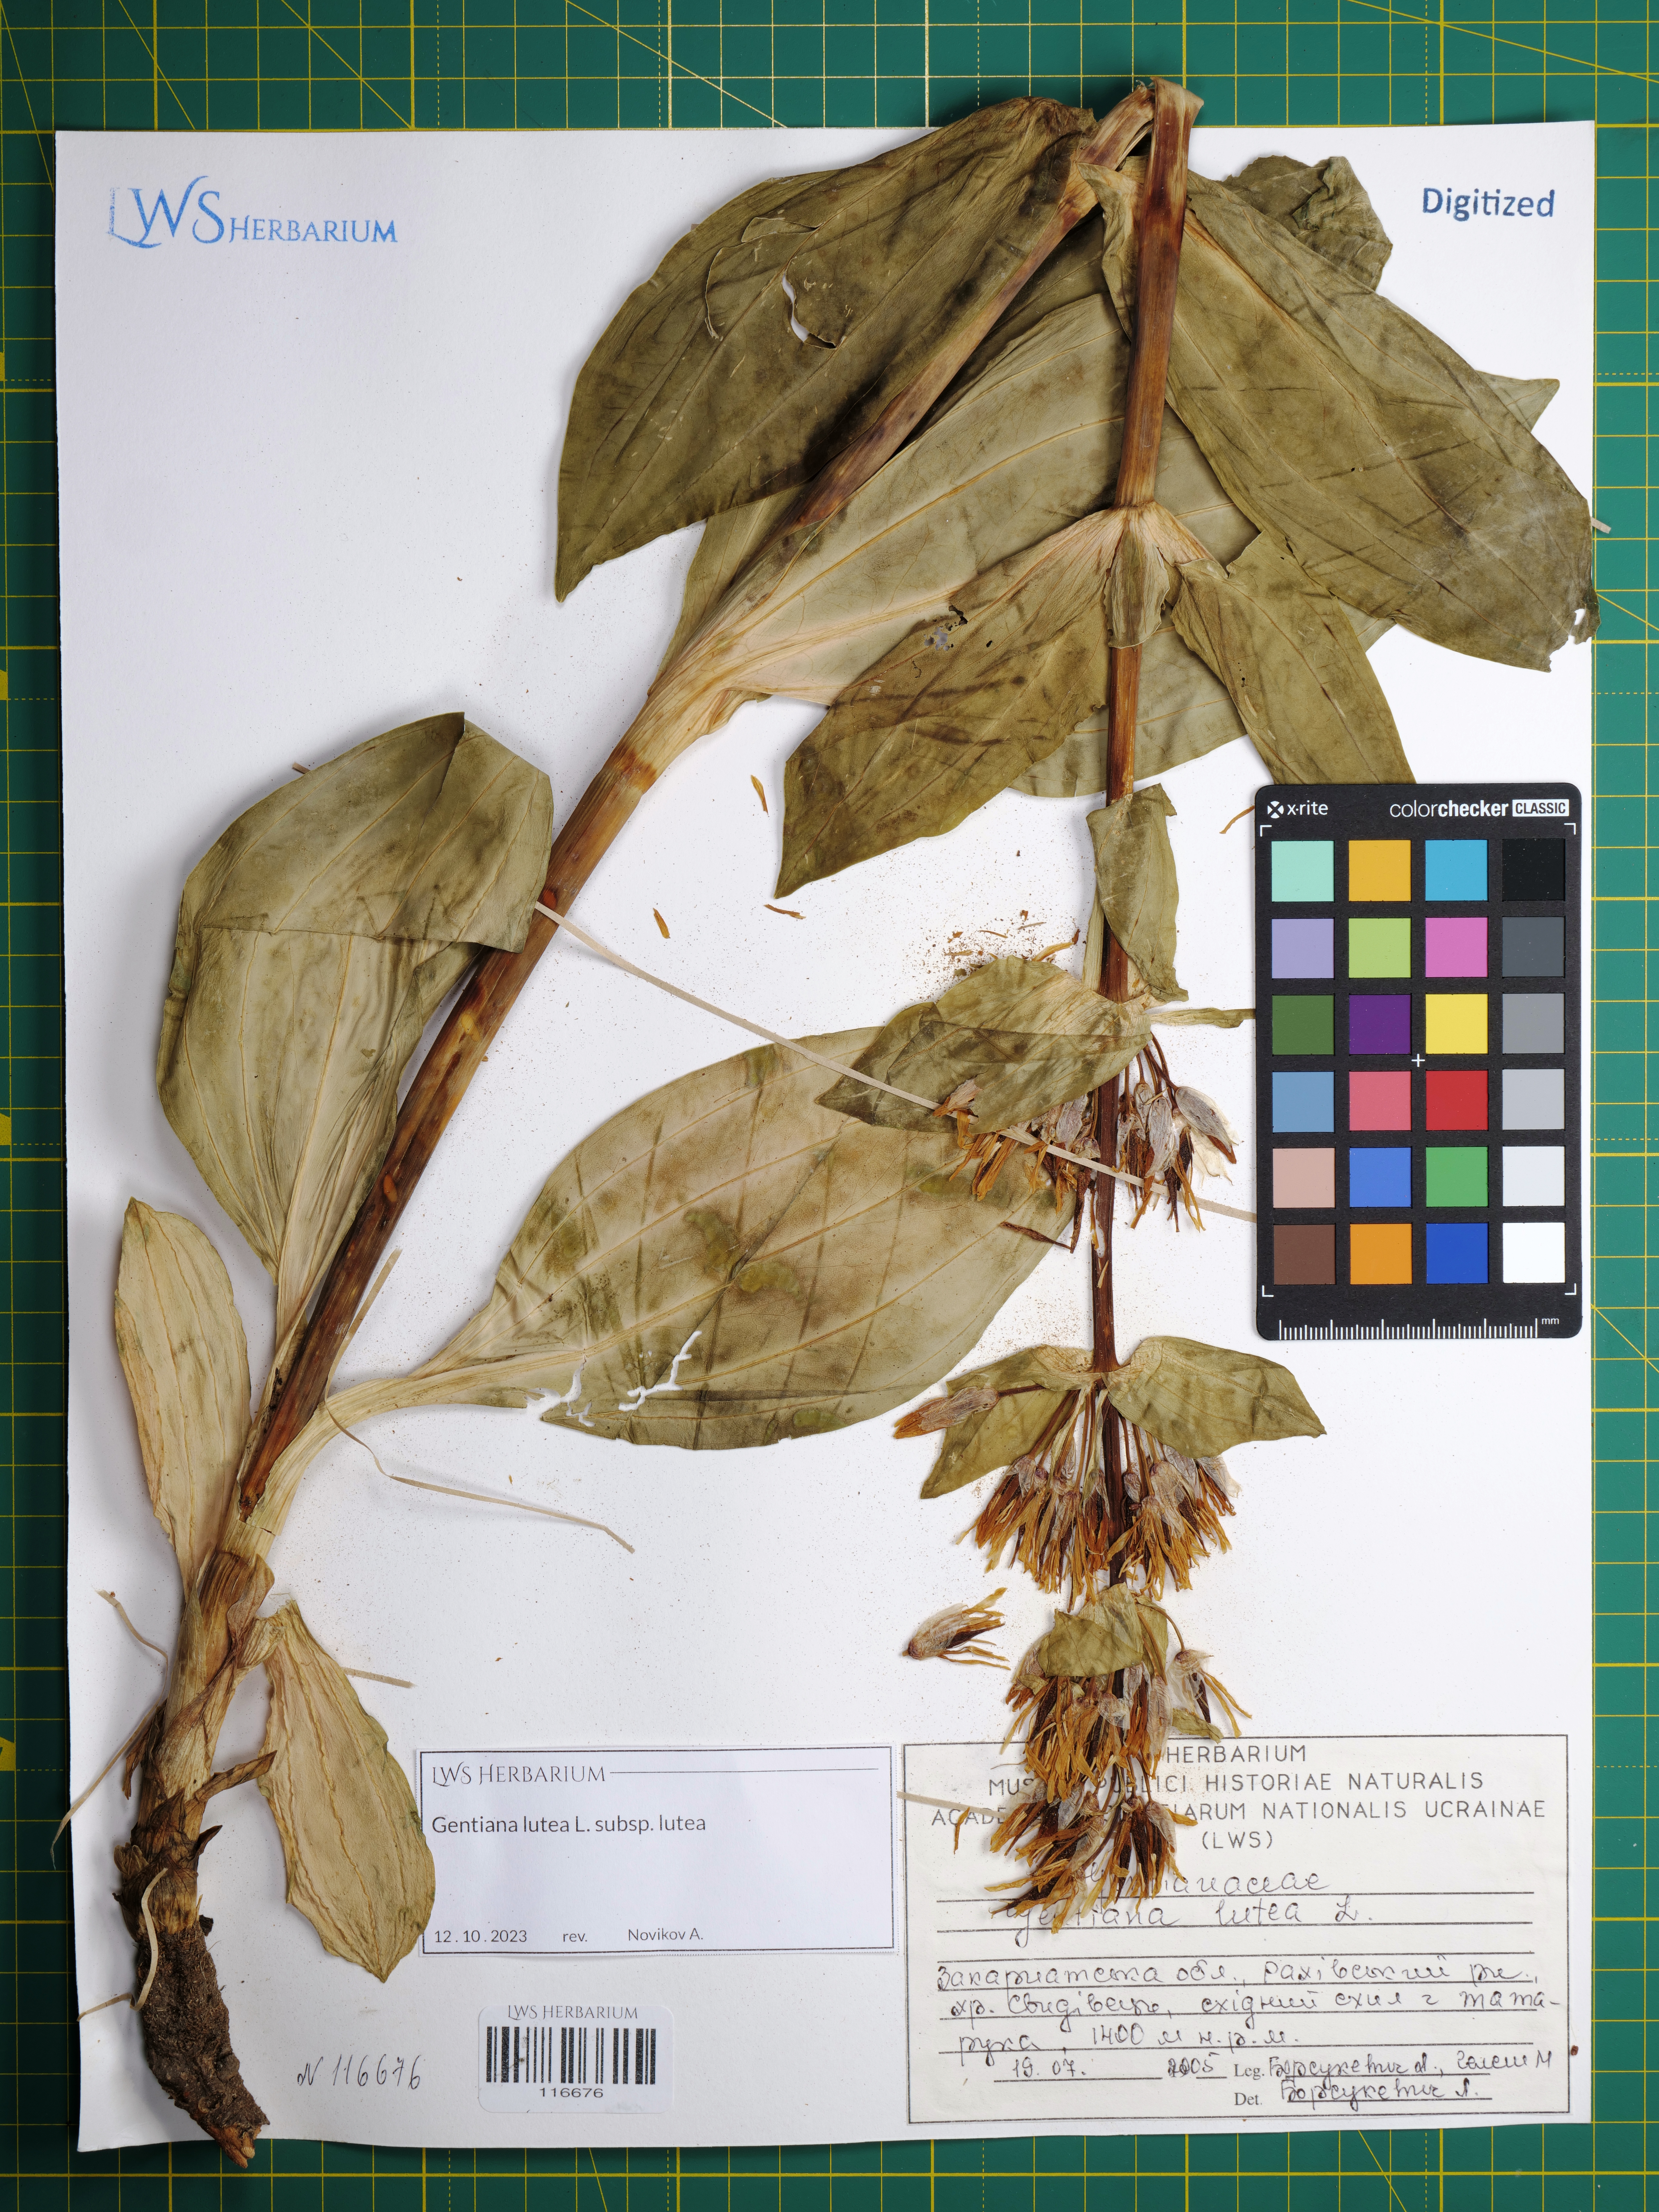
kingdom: Plantae
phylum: Tracheophyta
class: Magnoliopsida
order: Gentianales
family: Gentianaceae
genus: Gentiana
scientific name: Gentiana lutea
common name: Great yellow gentian
